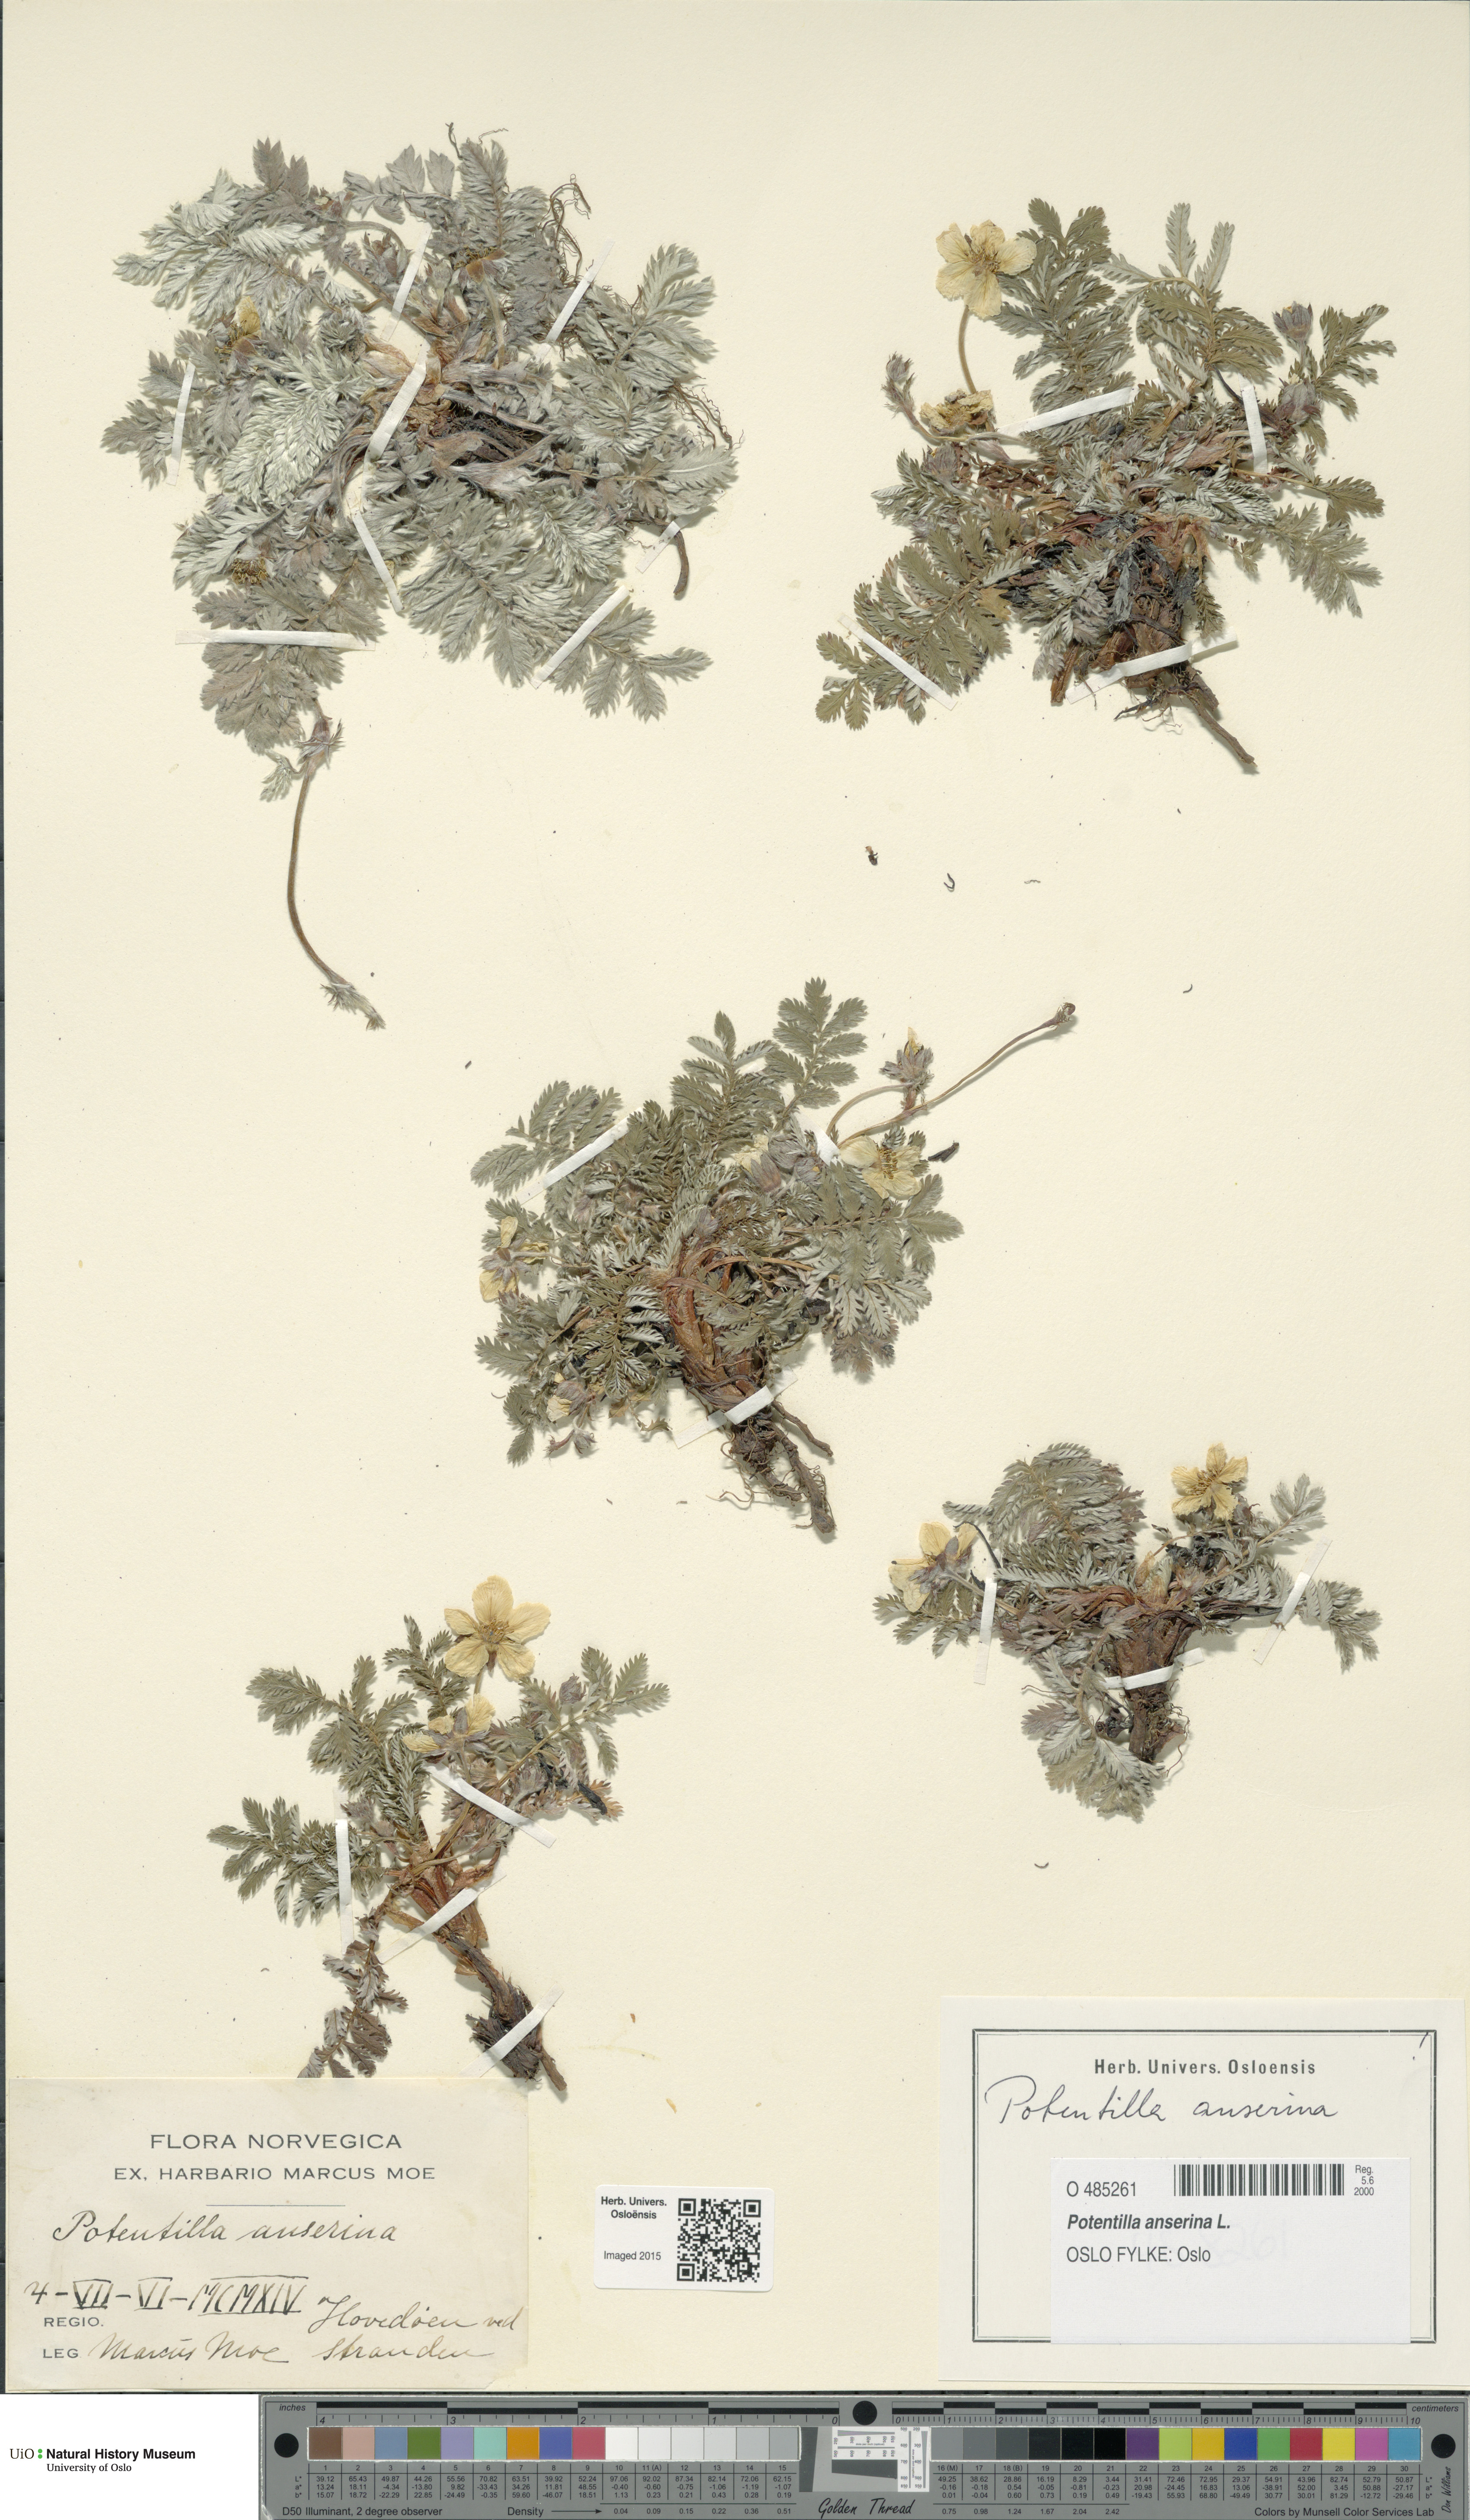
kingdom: Plantae
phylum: Tracheophyta
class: Magnoliopsida
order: Rosales
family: Rosaceae
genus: Argentina
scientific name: Argentina anserina
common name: Common silverweed
